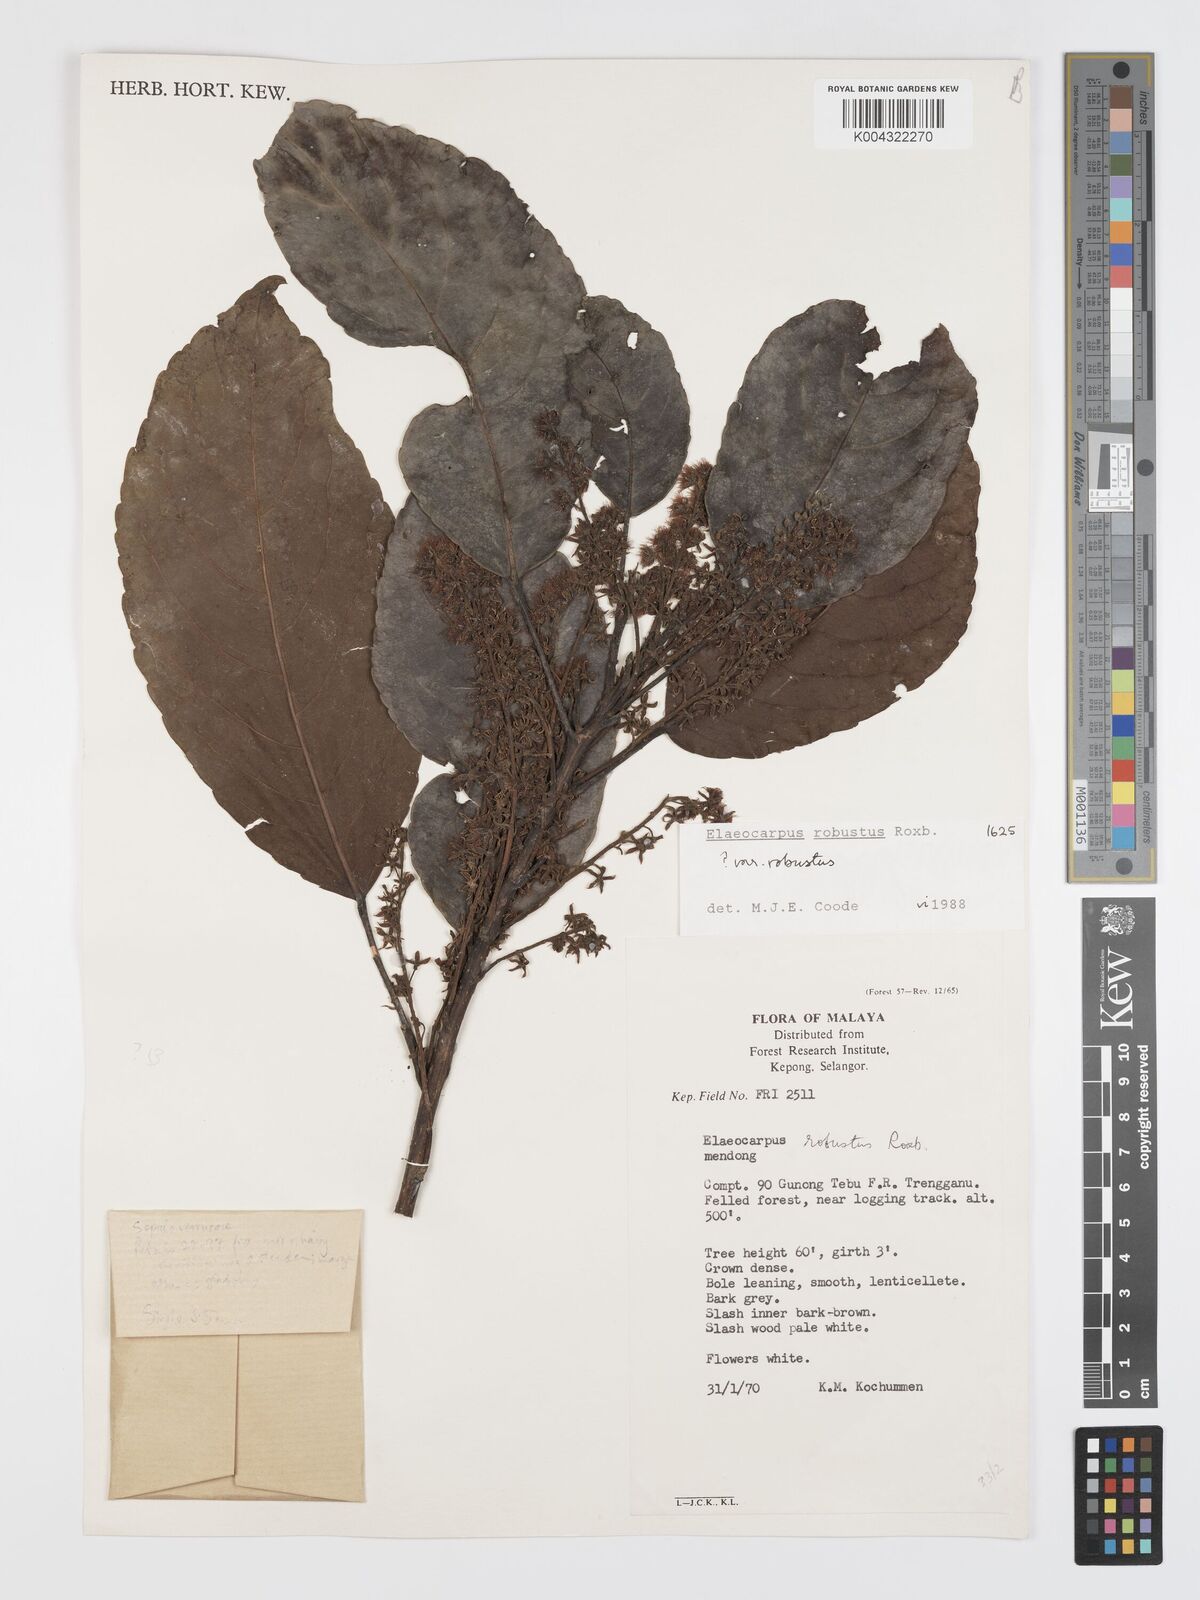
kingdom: Plantae
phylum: Tracheophyta
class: Magnoliopsida
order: Oxalidales
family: Elaeocarpaceae
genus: Elaeocarpus
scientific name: Elaeocarpus robustus
